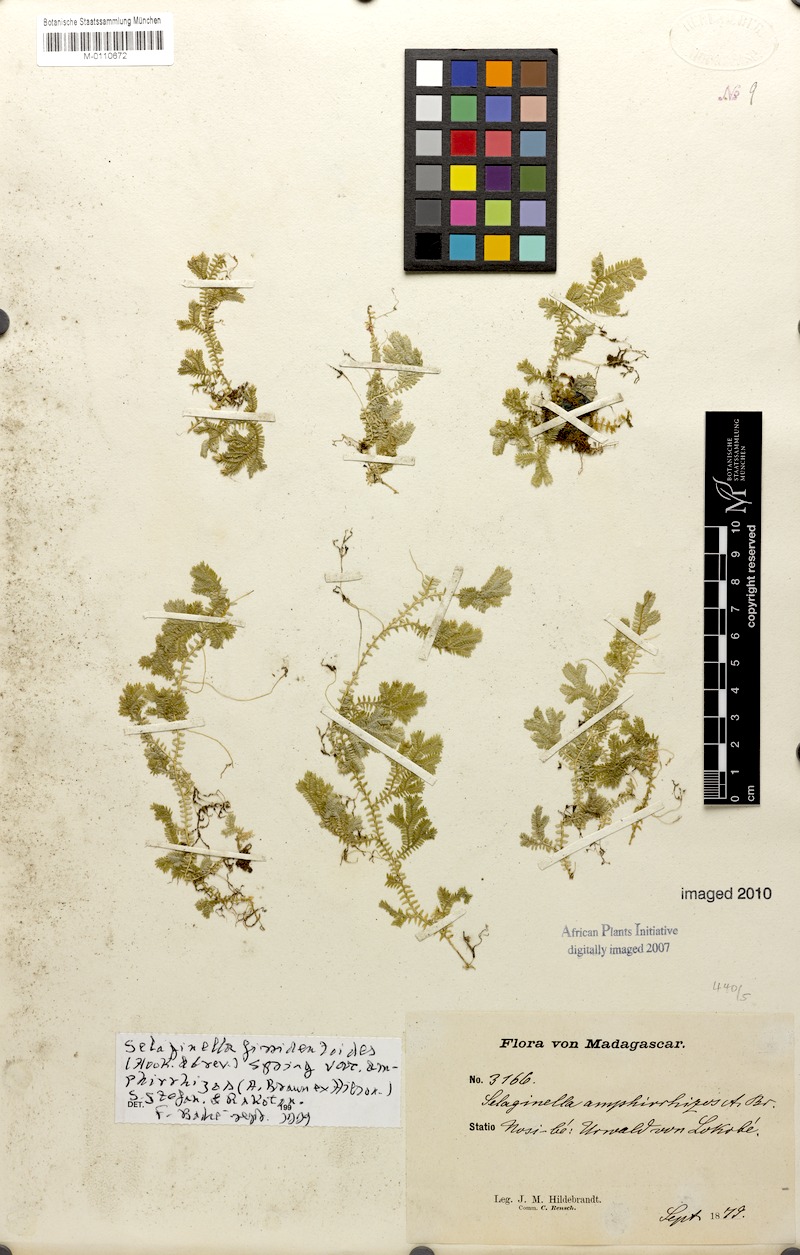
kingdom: Plantae
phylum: Tracheophyta
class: Lycopodiopsida
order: Selaginellales
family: Selaginellaceae
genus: Selaginella
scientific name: Selaginella fissidentoides
